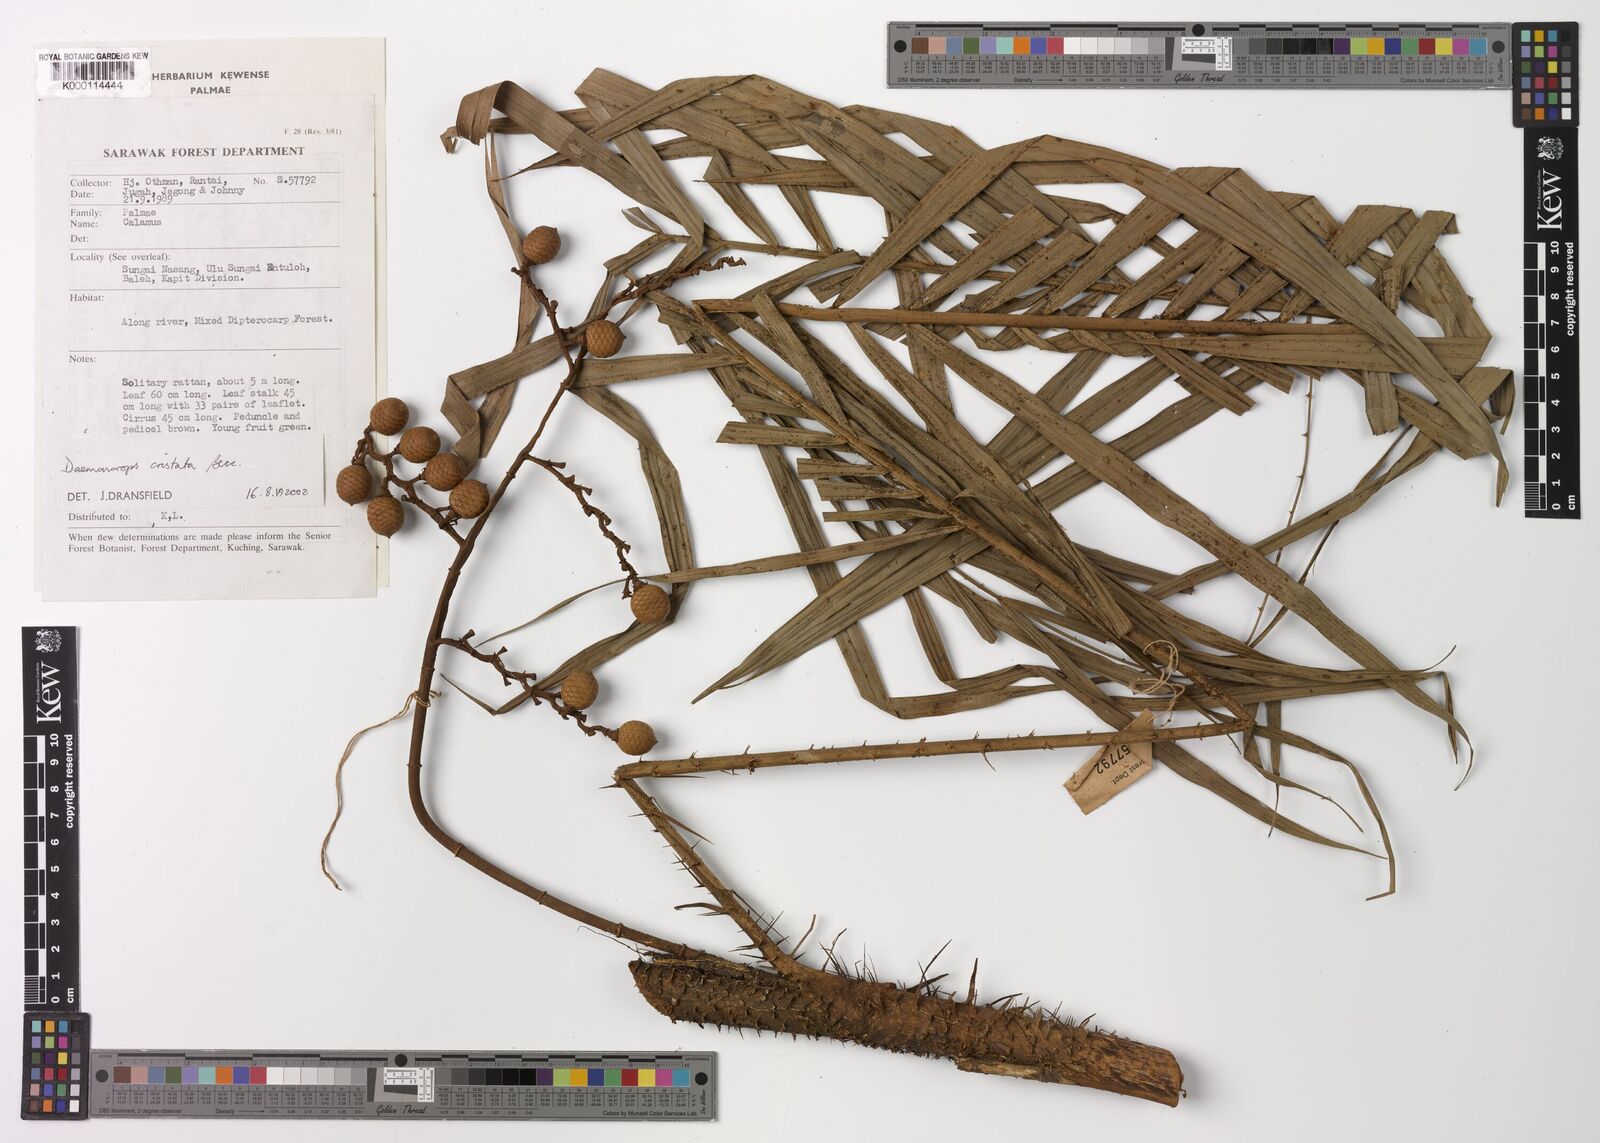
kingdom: Plantae
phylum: Tracheophyta
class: Liliopsida
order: Arecales
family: Arecaceae
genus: Calamus
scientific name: Calamus cristatus
